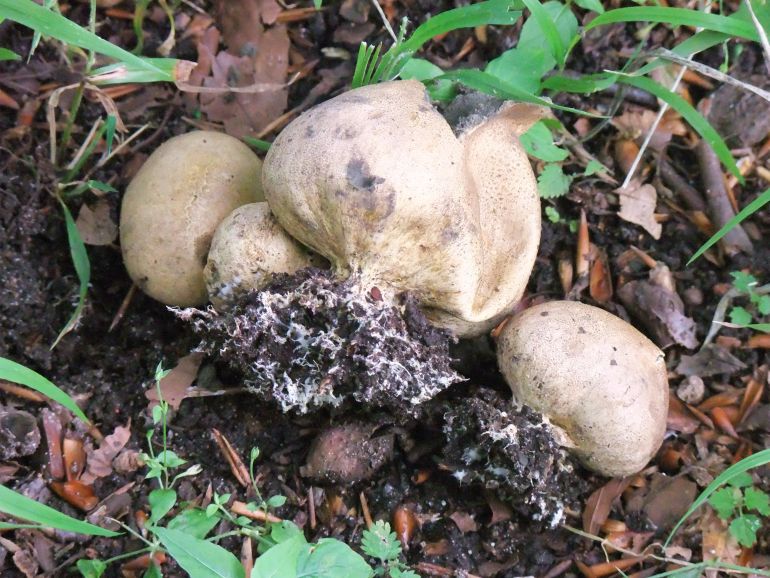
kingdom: Fungi
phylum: Basidiomycota
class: Agaricomycetes
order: Boletales
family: Sclerodermataceae
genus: Scleroderma
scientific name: Scleroderma verrucosum
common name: stilket bruskbold
